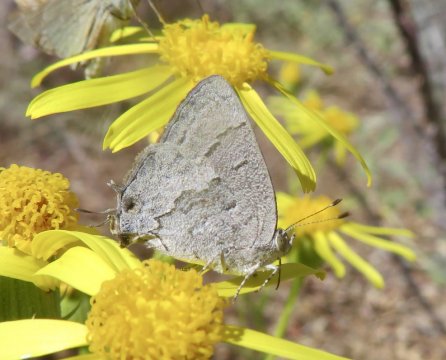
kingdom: Animalia
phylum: Arthropoda
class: Insecta
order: Lepidoptera
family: Lycaenidae
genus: Ministrymon
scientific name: Ministrymon leda
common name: Leda Ministreak
